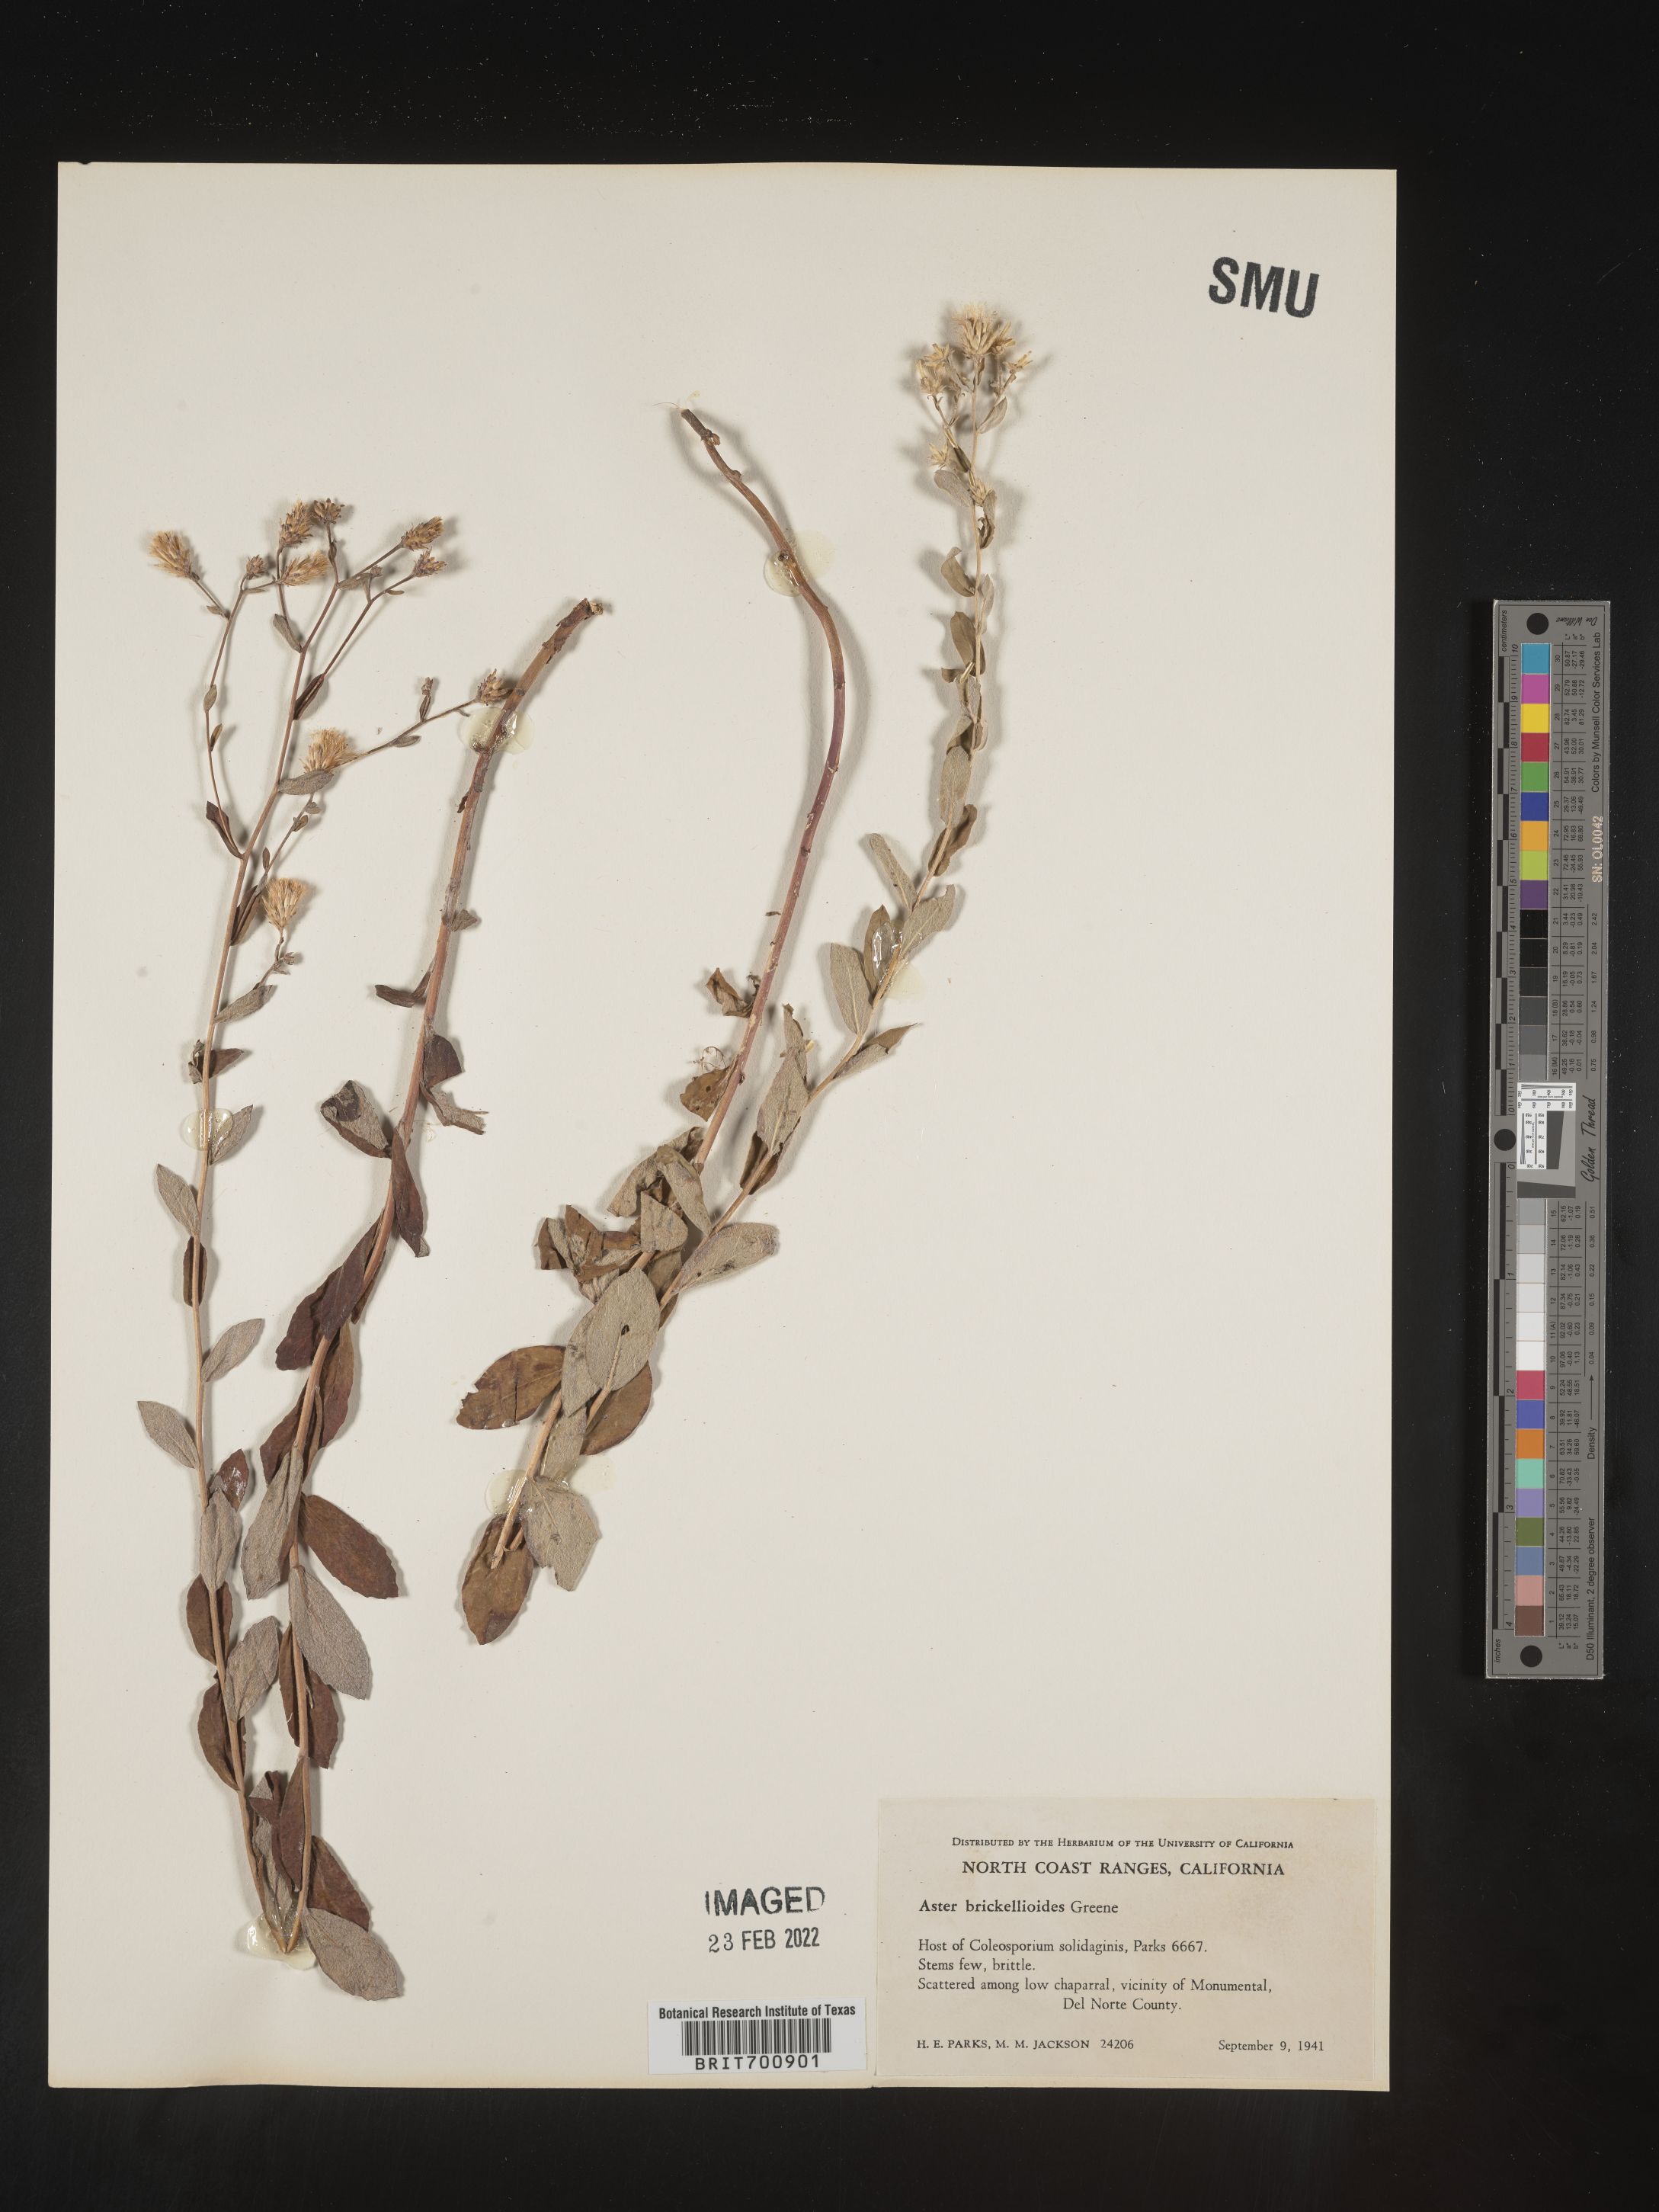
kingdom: Plantae
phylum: Tracheophyta
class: Magnoliopsida
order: Asterales
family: Asteraceae
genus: Eucephalus
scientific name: Eucephalus tomentellus
